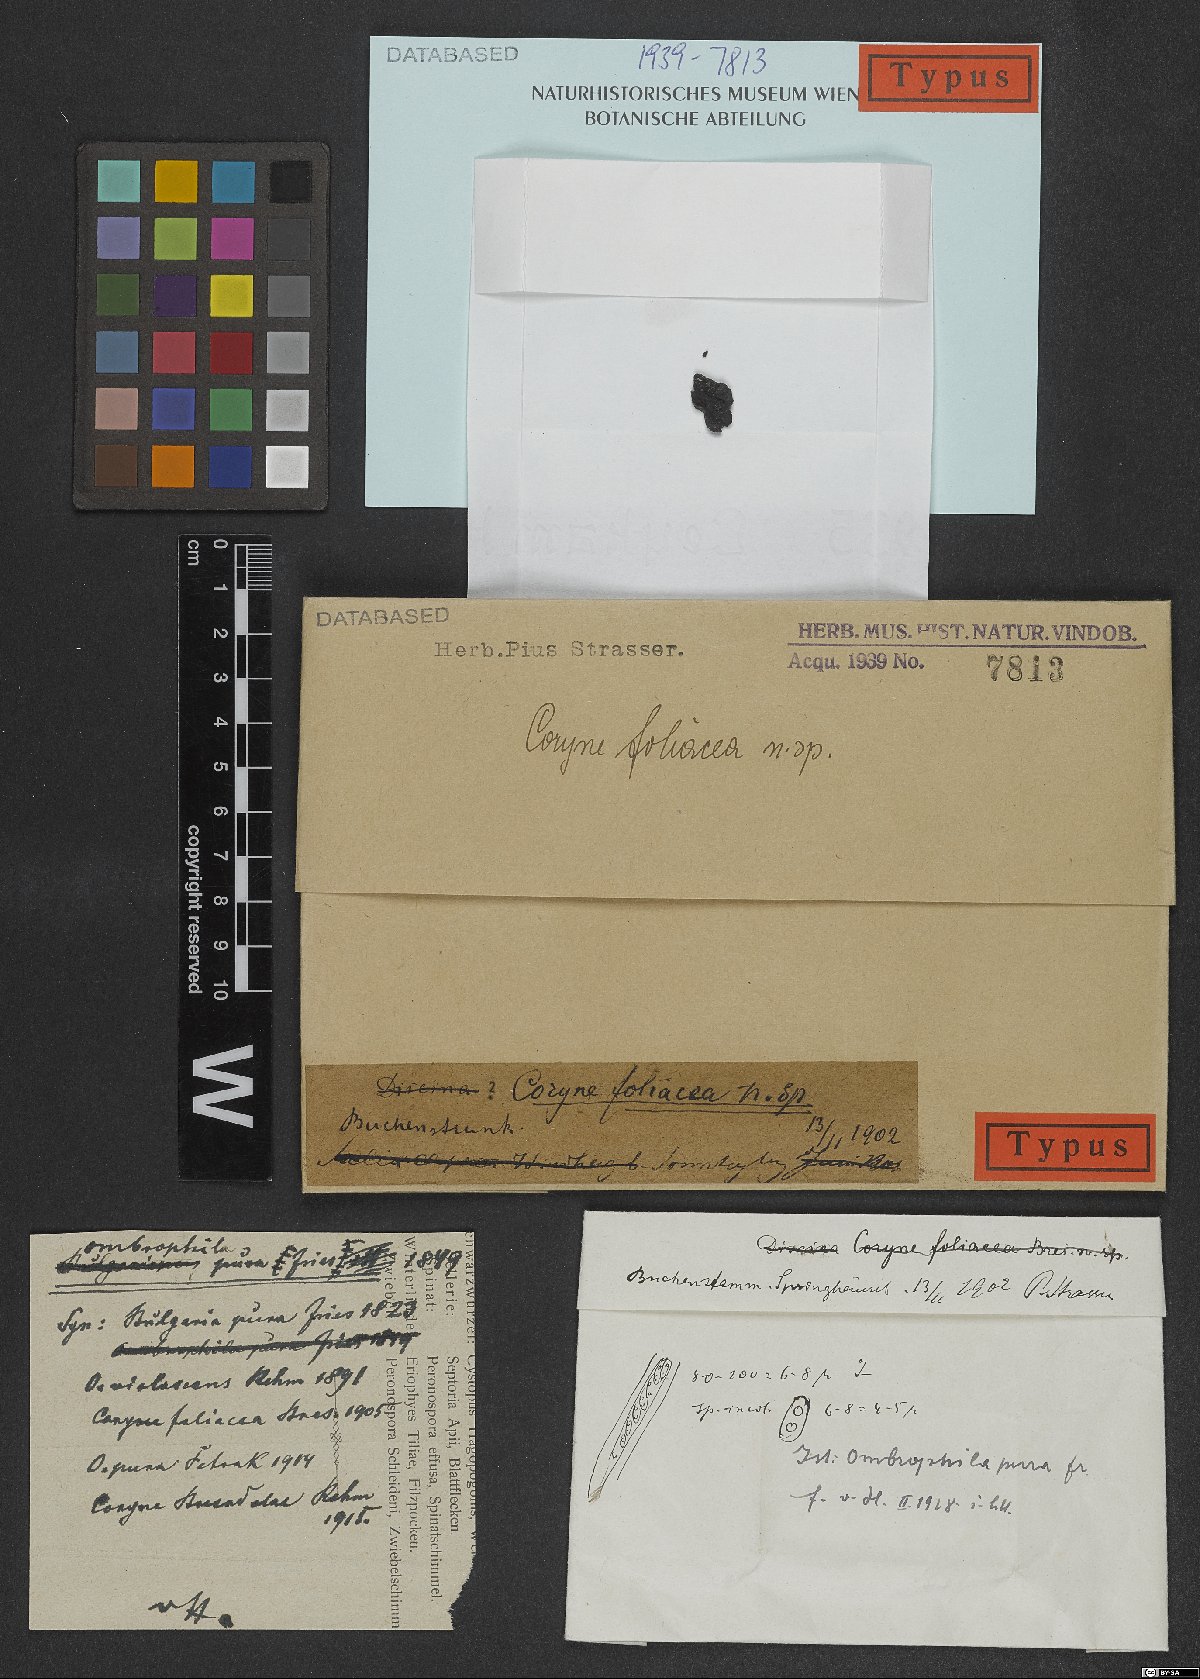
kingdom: Fungi
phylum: Ascomycota
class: Leotiomycetes
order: Helotiales
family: Gelatinodiscaceae
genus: Neobulgaria
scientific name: Neobulgaria pura
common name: Beech jelly-disc
